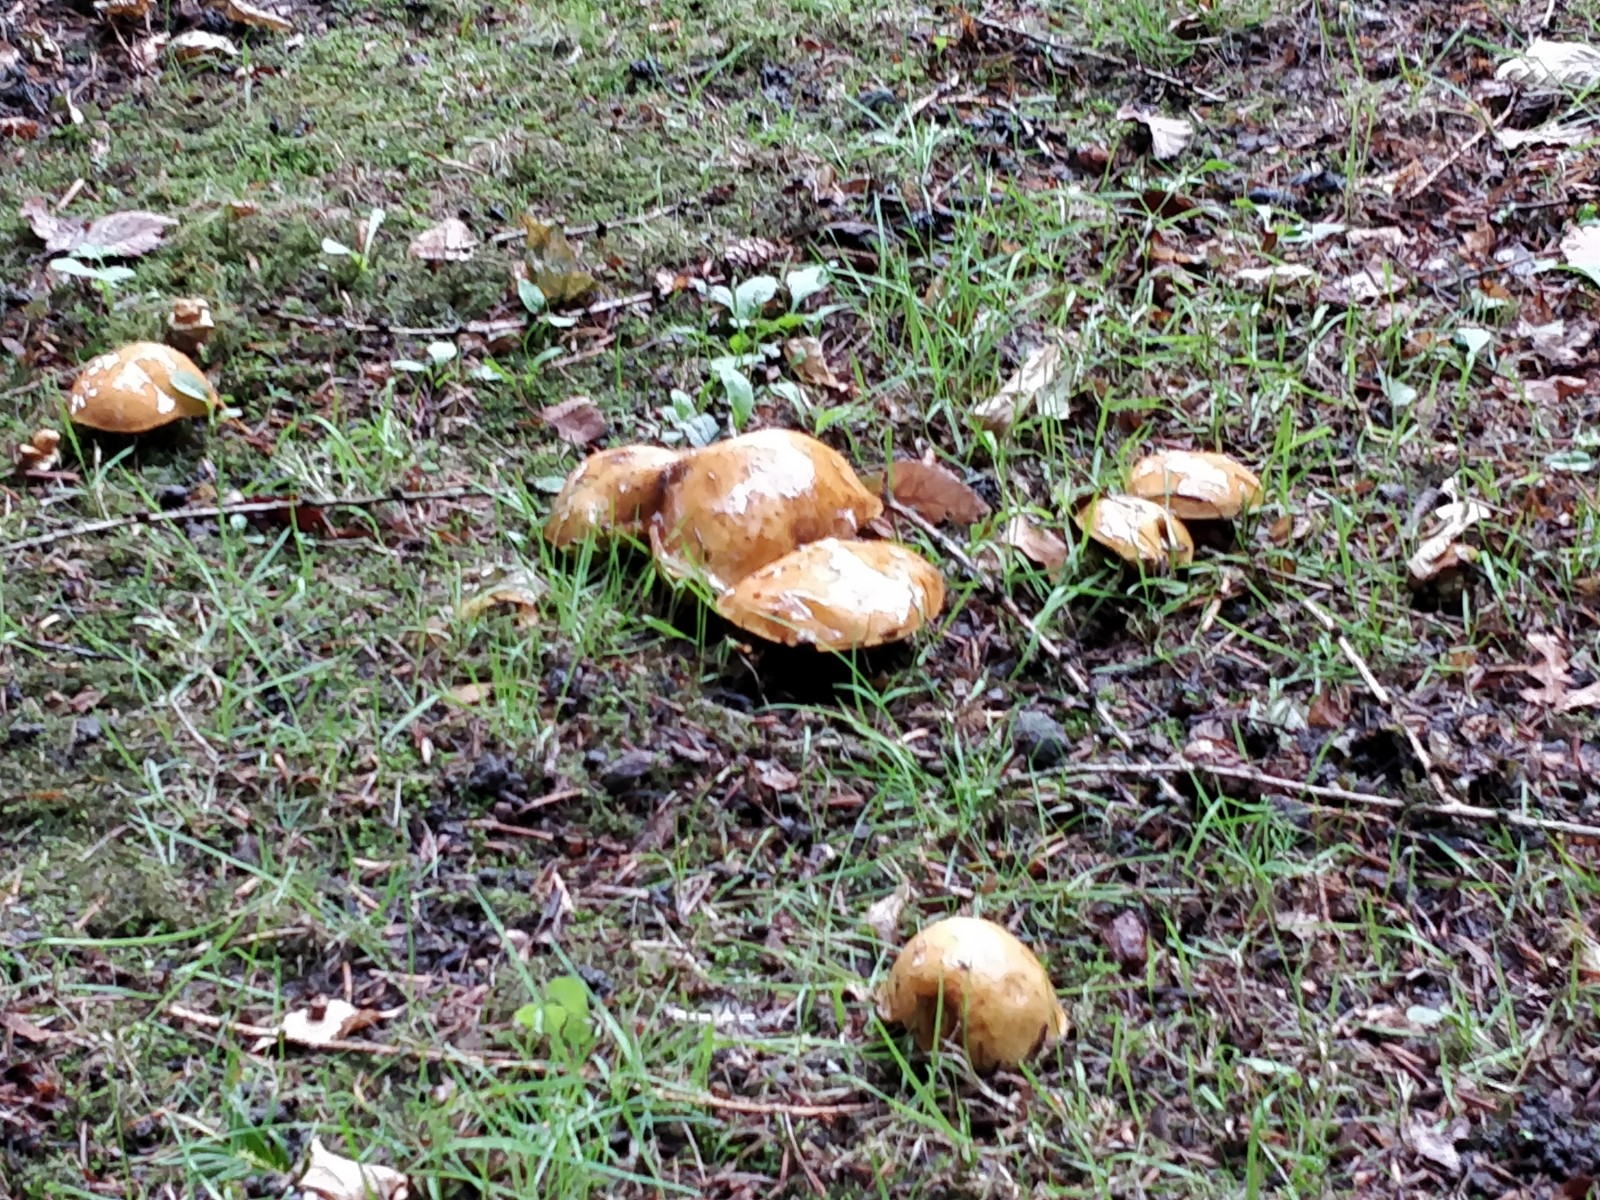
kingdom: Fungi
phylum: Basidiomycota
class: Agaricomycetes
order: Boletales
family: Suillaceae
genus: Suillus
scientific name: Suillus grevillei
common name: lærke-slimrørhat
